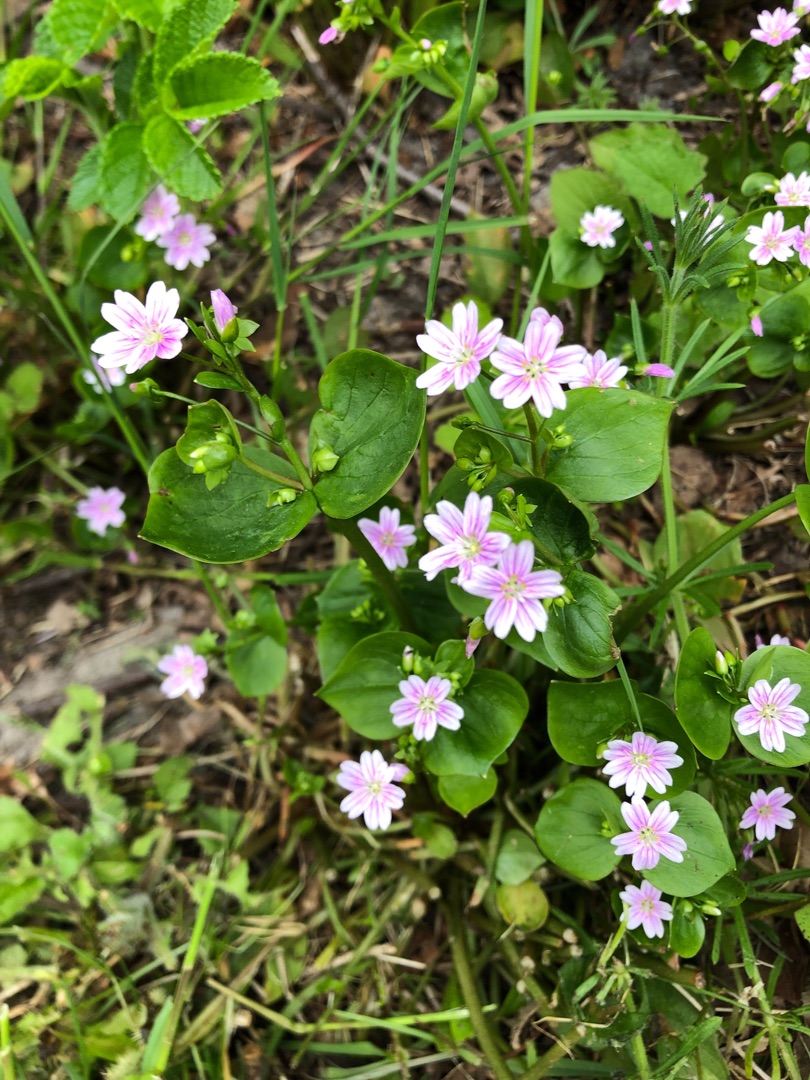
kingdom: Plantae
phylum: Tracheophyta
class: Magnoliopsida
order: Caryophyllales
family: Montiaceae
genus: Claytonia
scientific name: Claytonia sibirica
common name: Sibirisk vinterportulak
